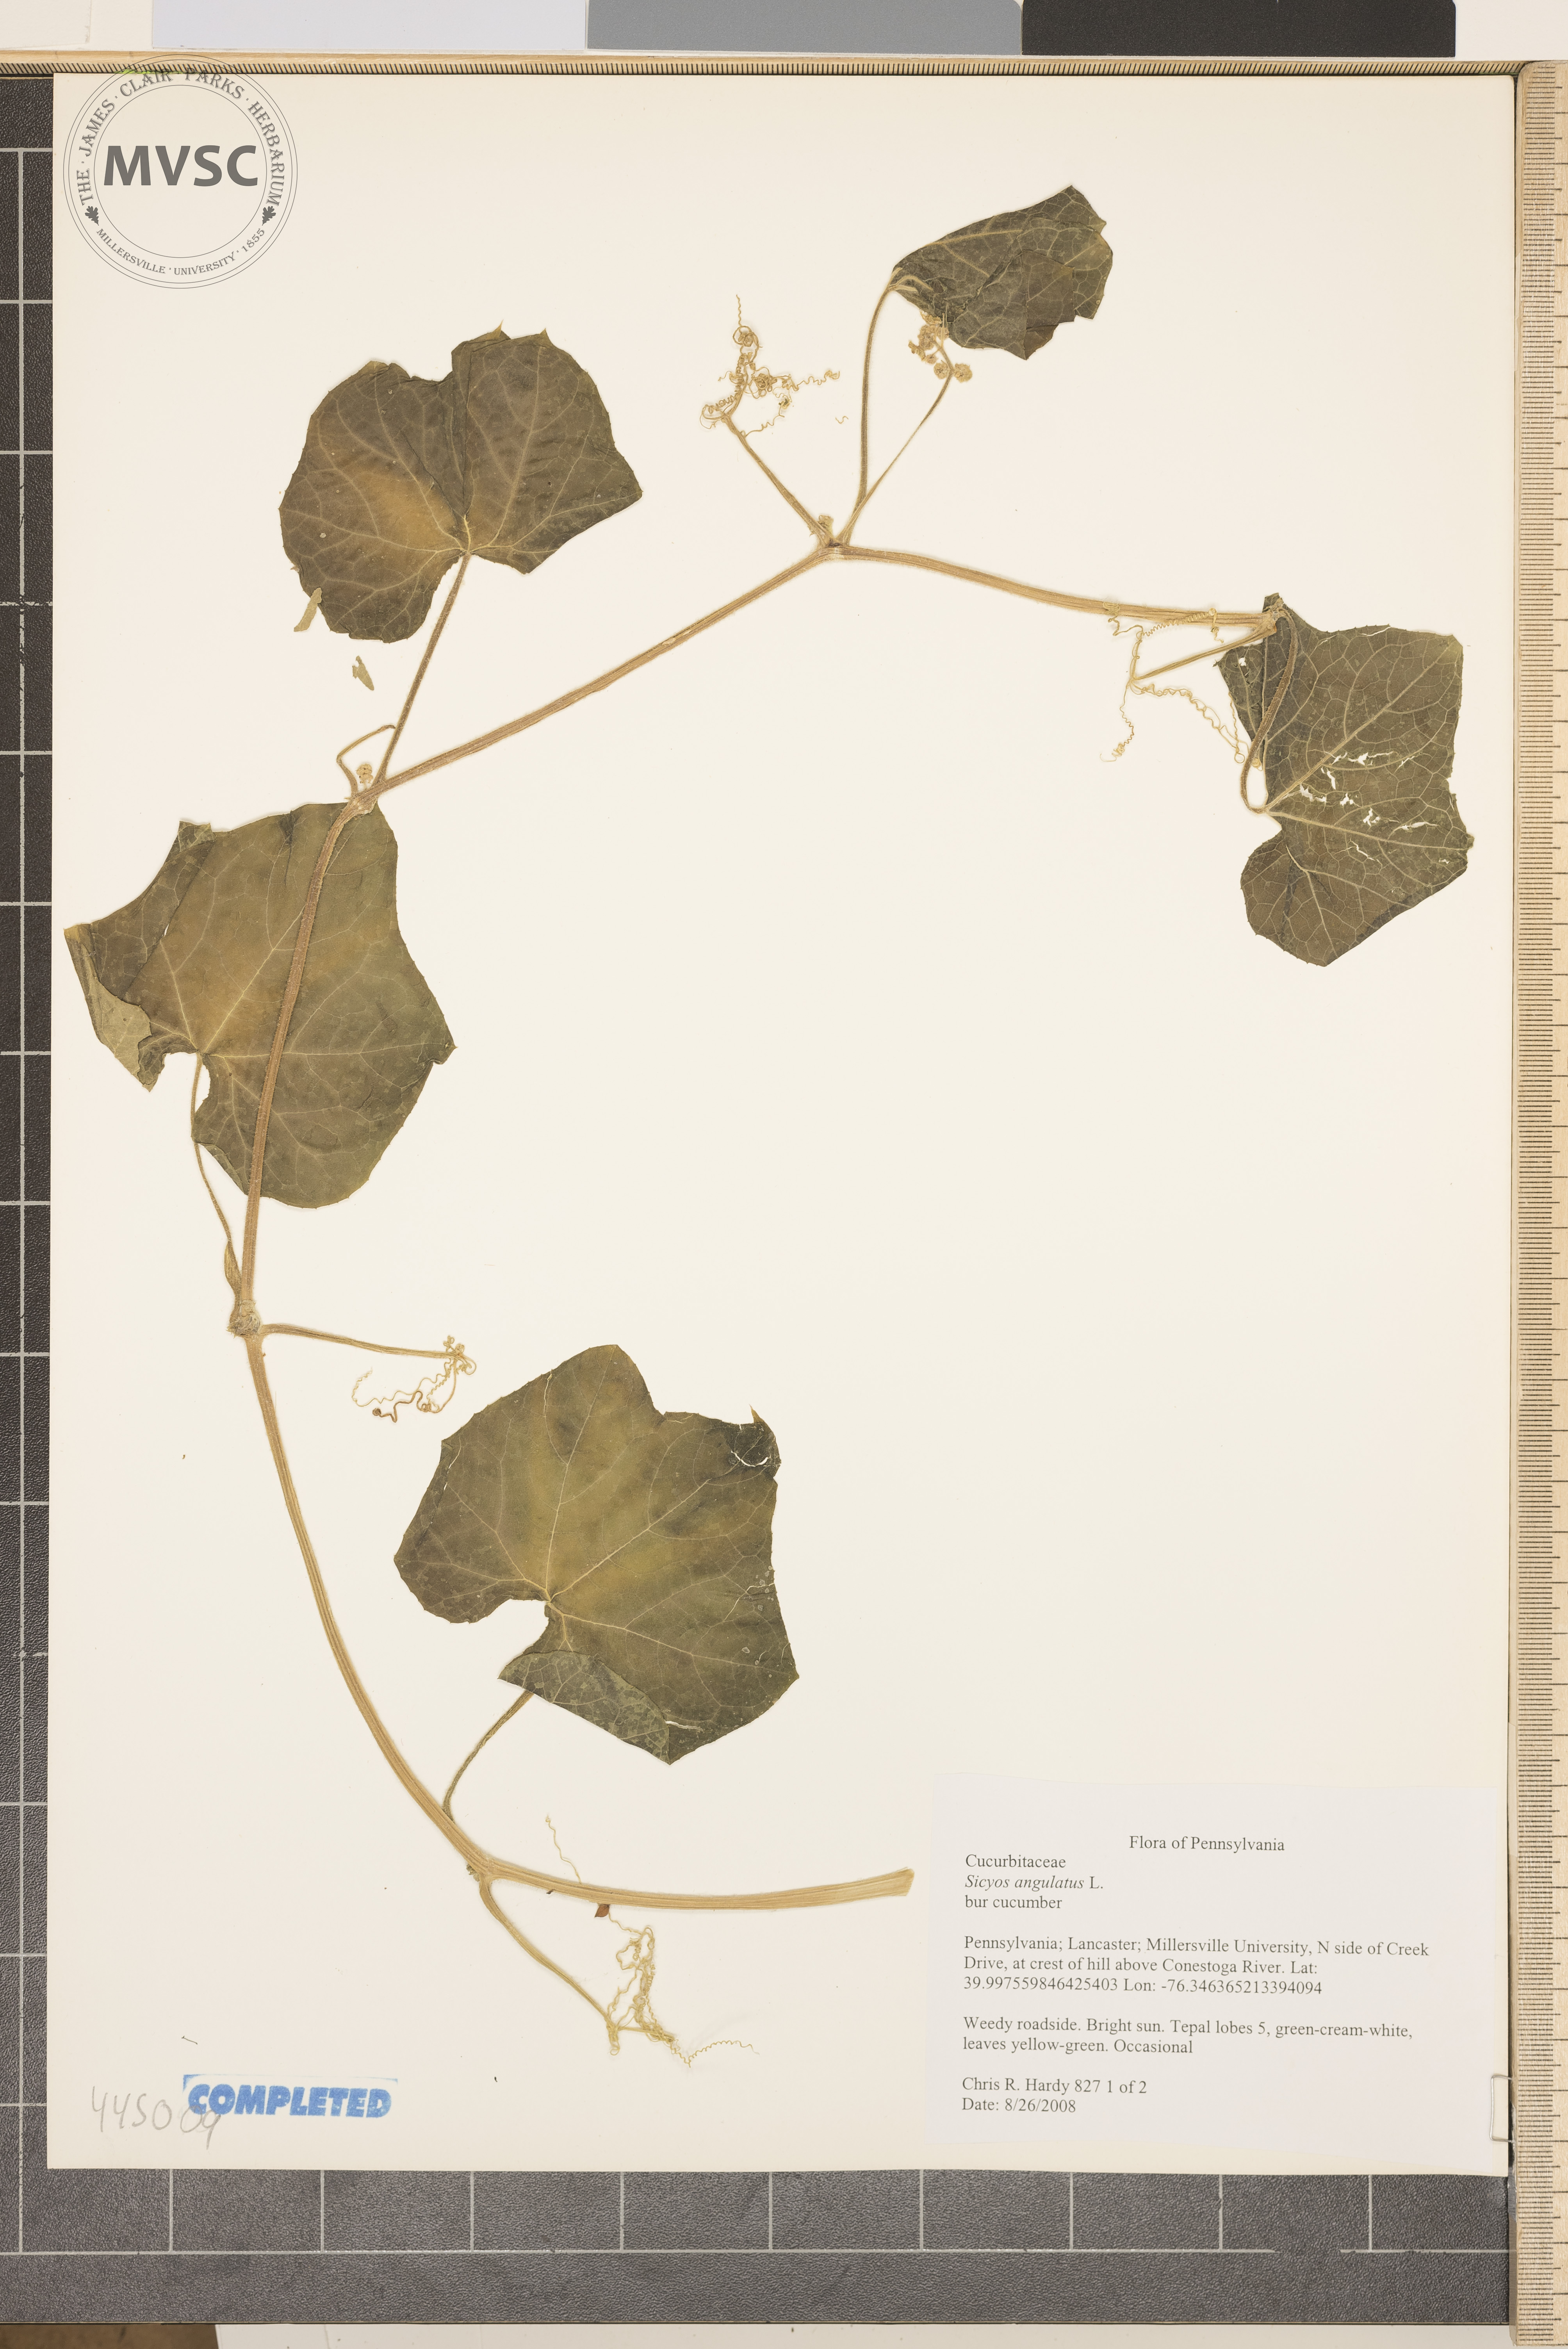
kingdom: Plantae
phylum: Tracheophyta
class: Magnoliopsida
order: Cucurbitales
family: Cucurbitaceae
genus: Sicyos
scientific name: Sicyos angulatus
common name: Bur cucumber
